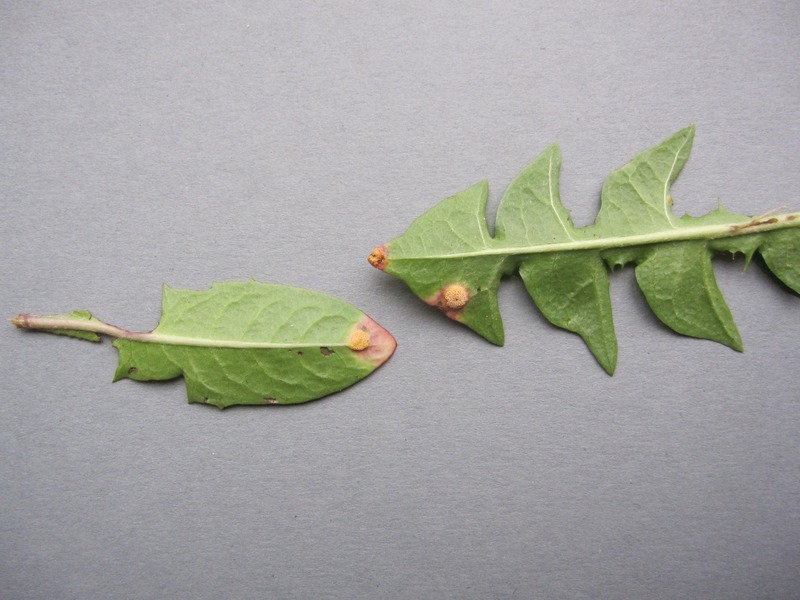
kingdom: Fungi
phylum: Basidiomycota
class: Pucciniomycetes
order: Pucciniales
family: Pucciniaceae
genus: Puccinia
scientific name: Puccinia dioicae
